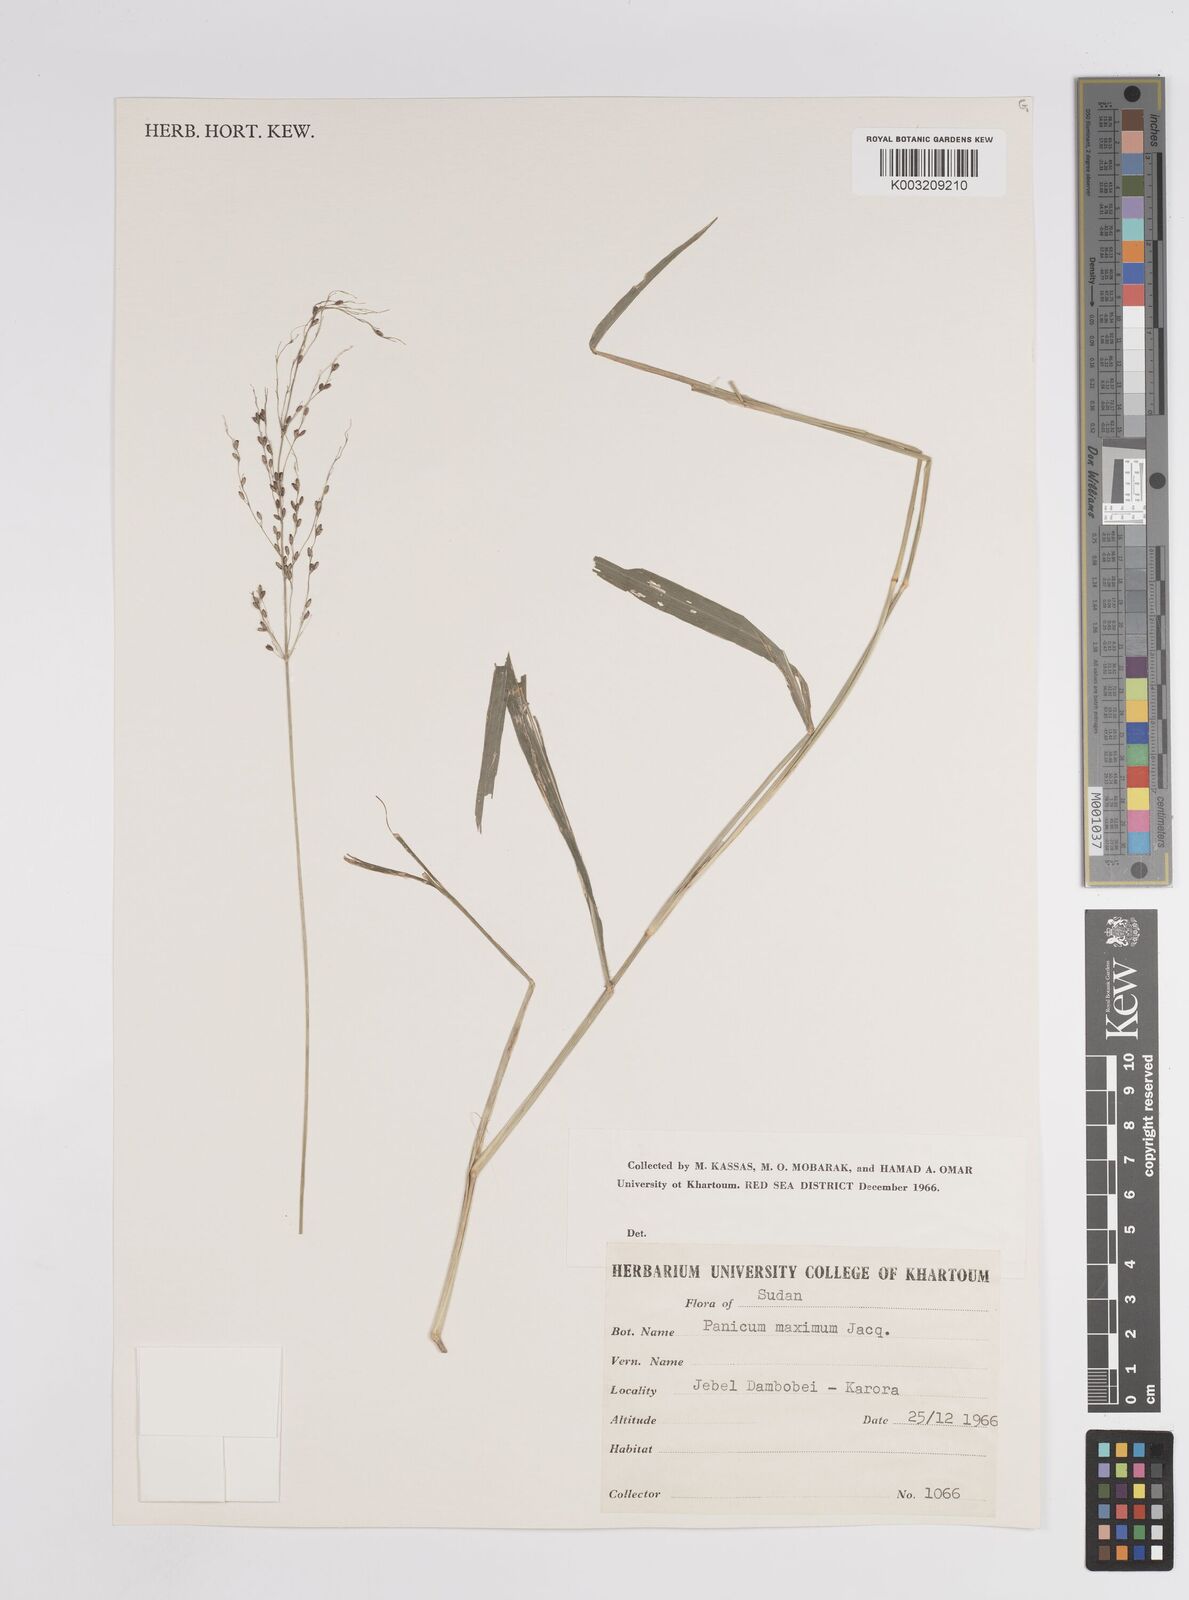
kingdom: Plantae
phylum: Tracheophyta
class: Liliopsida
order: Poales
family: Poaceae
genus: Megathyrsus
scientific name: Megathyrsus maximus
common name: Guineagrass
